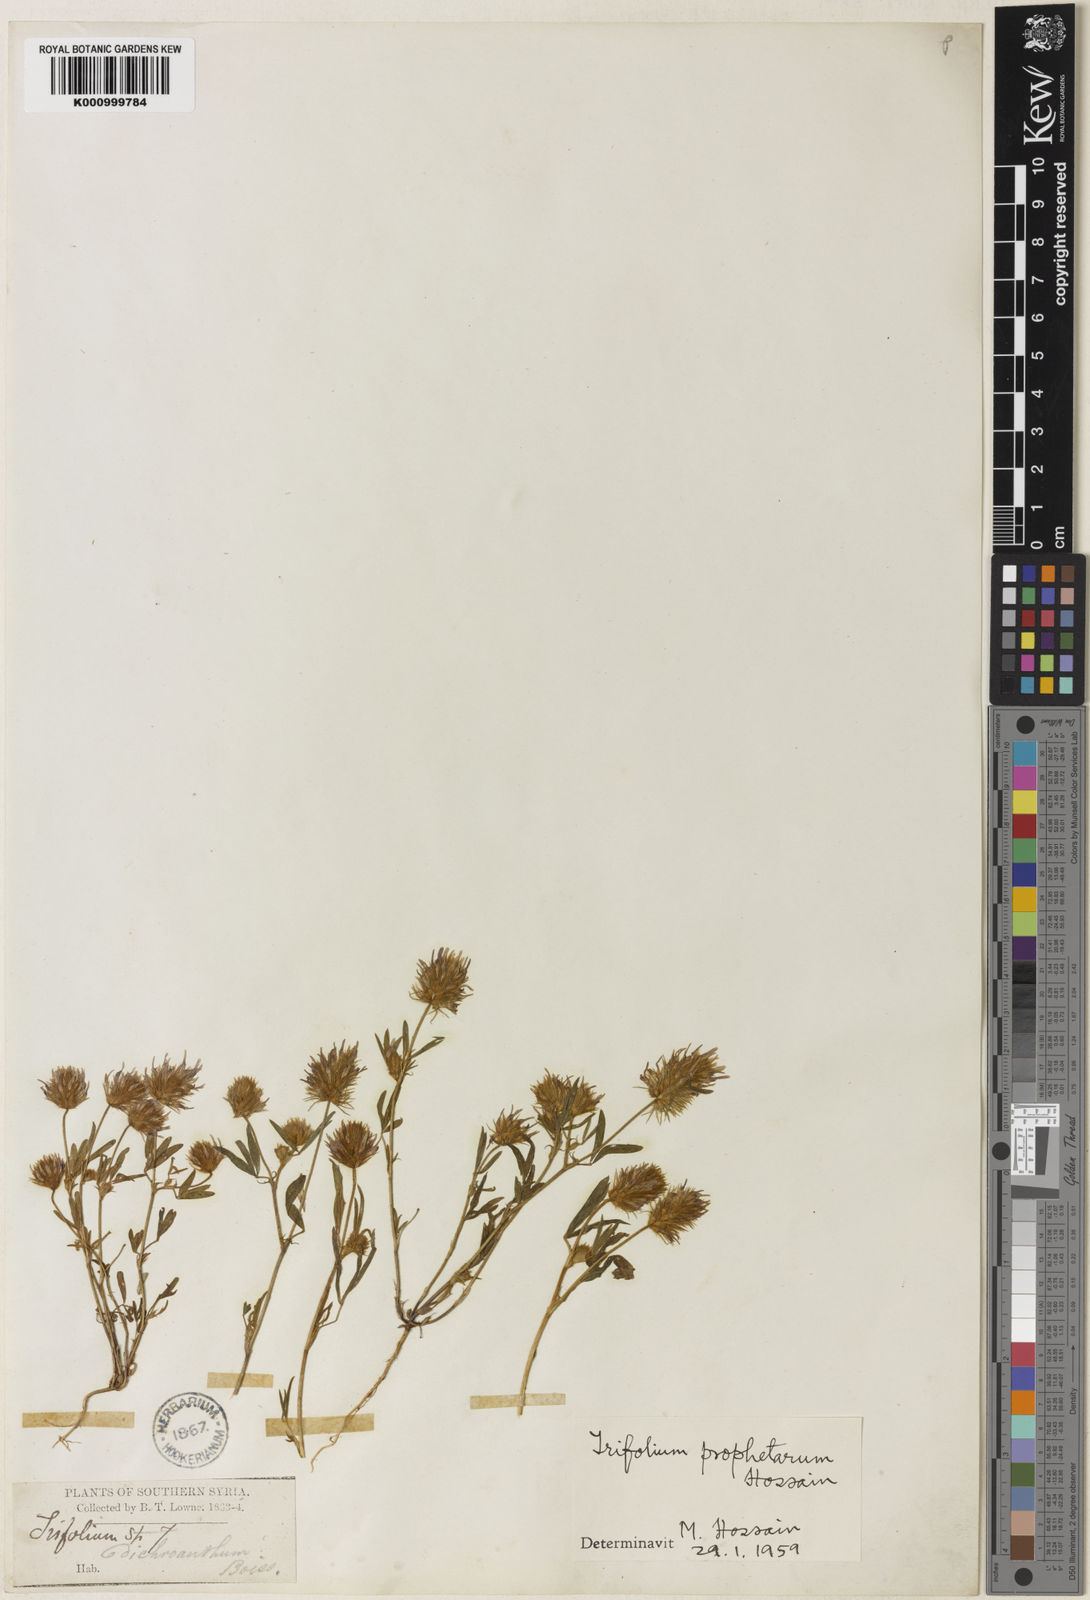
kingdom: Plantae
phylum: Tracheophyta
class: Magnoliopsida
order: Fabales
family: Fabaceae
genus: Trifolium
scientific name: Trifolium prophetarum
